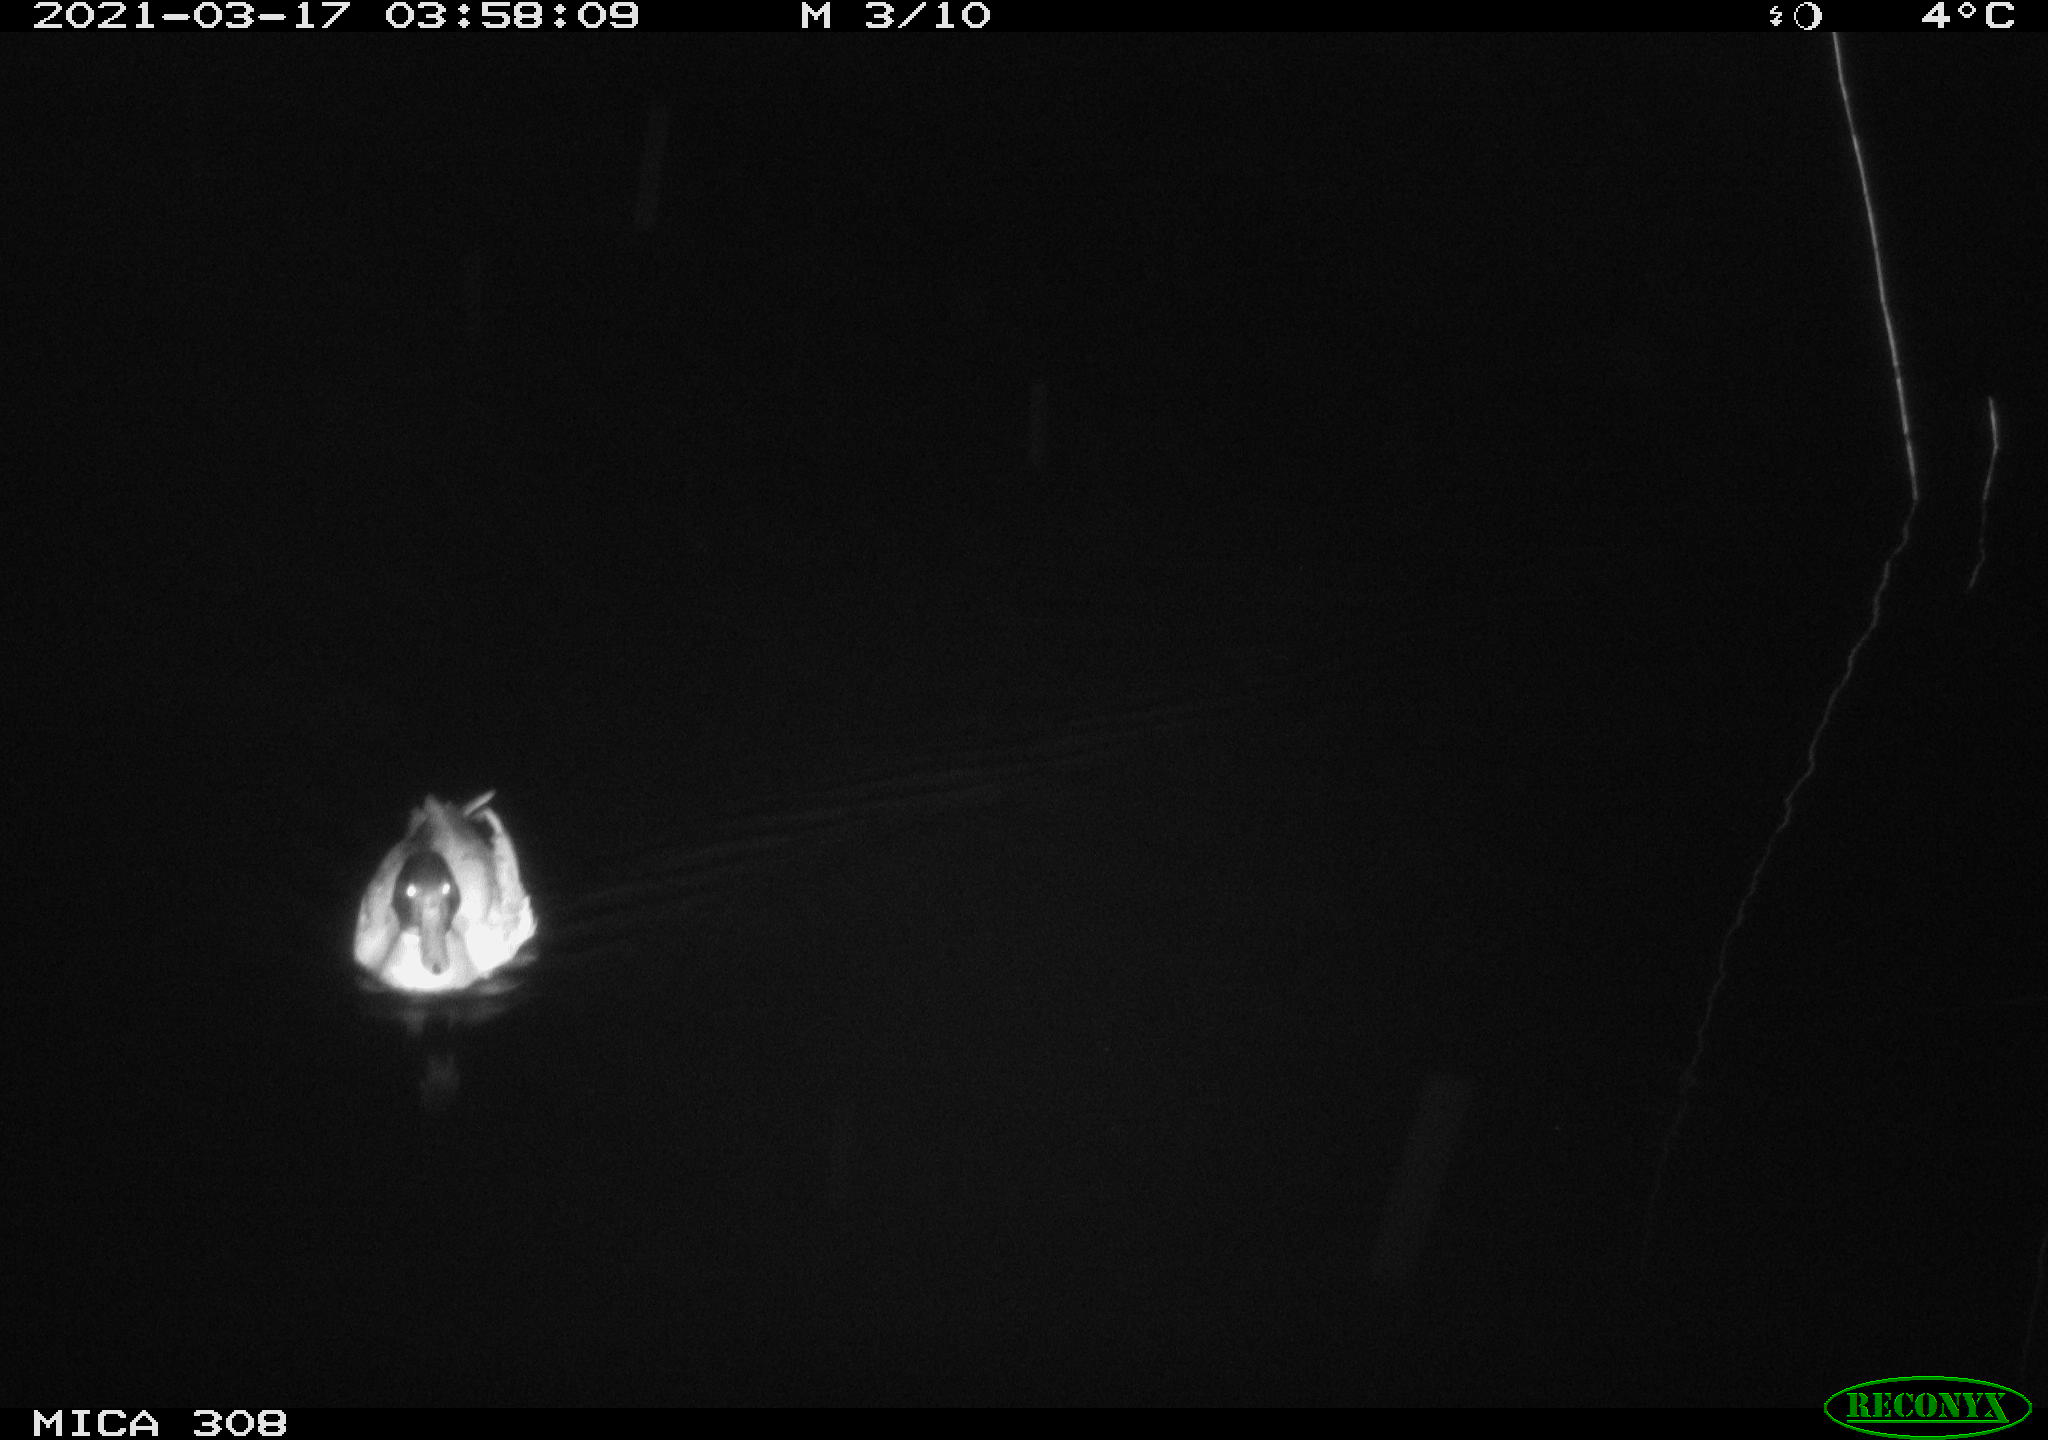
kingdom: Animalia
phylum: Chordata
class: Aves
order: Anseriformes
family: Anatidae
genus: Anas
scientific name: Anas platyrhynchos
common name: Mallard
